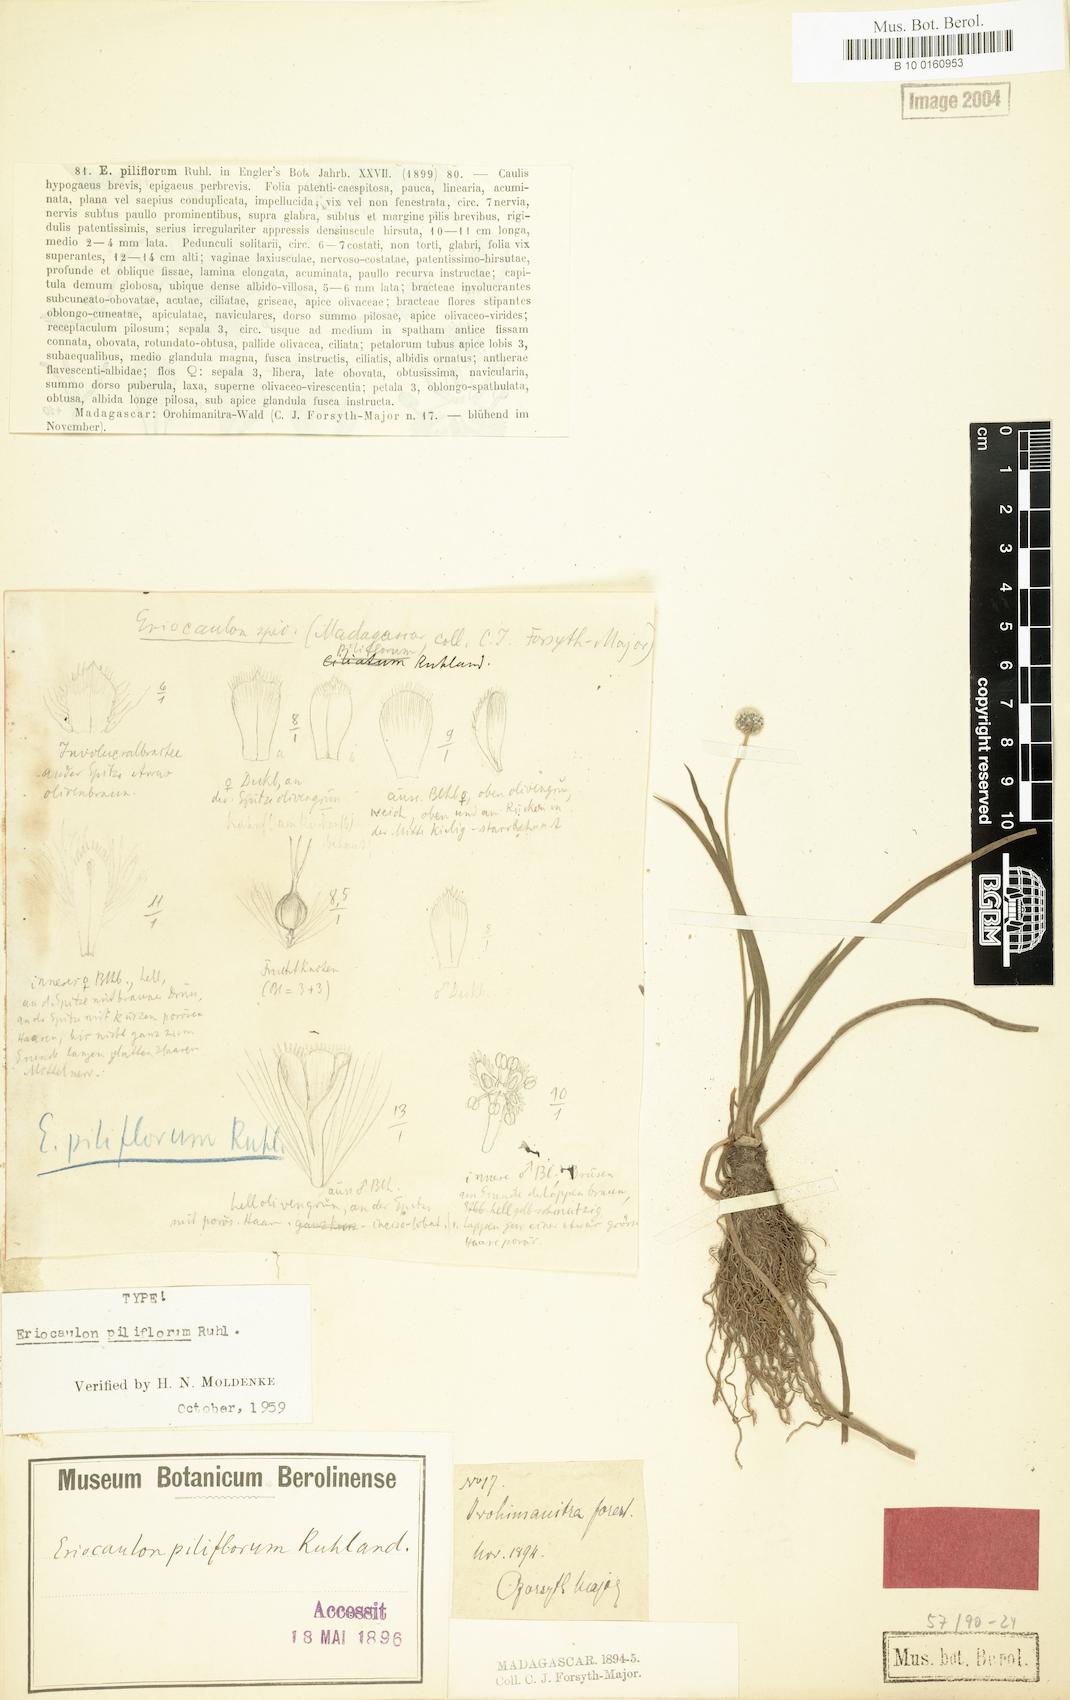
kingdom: Plantae
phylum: Tracheophyta
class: Liliopsida
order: Poales
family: Eriocaulaceae
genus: Eriocaulon
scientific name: Eriocaulon piliflorum
